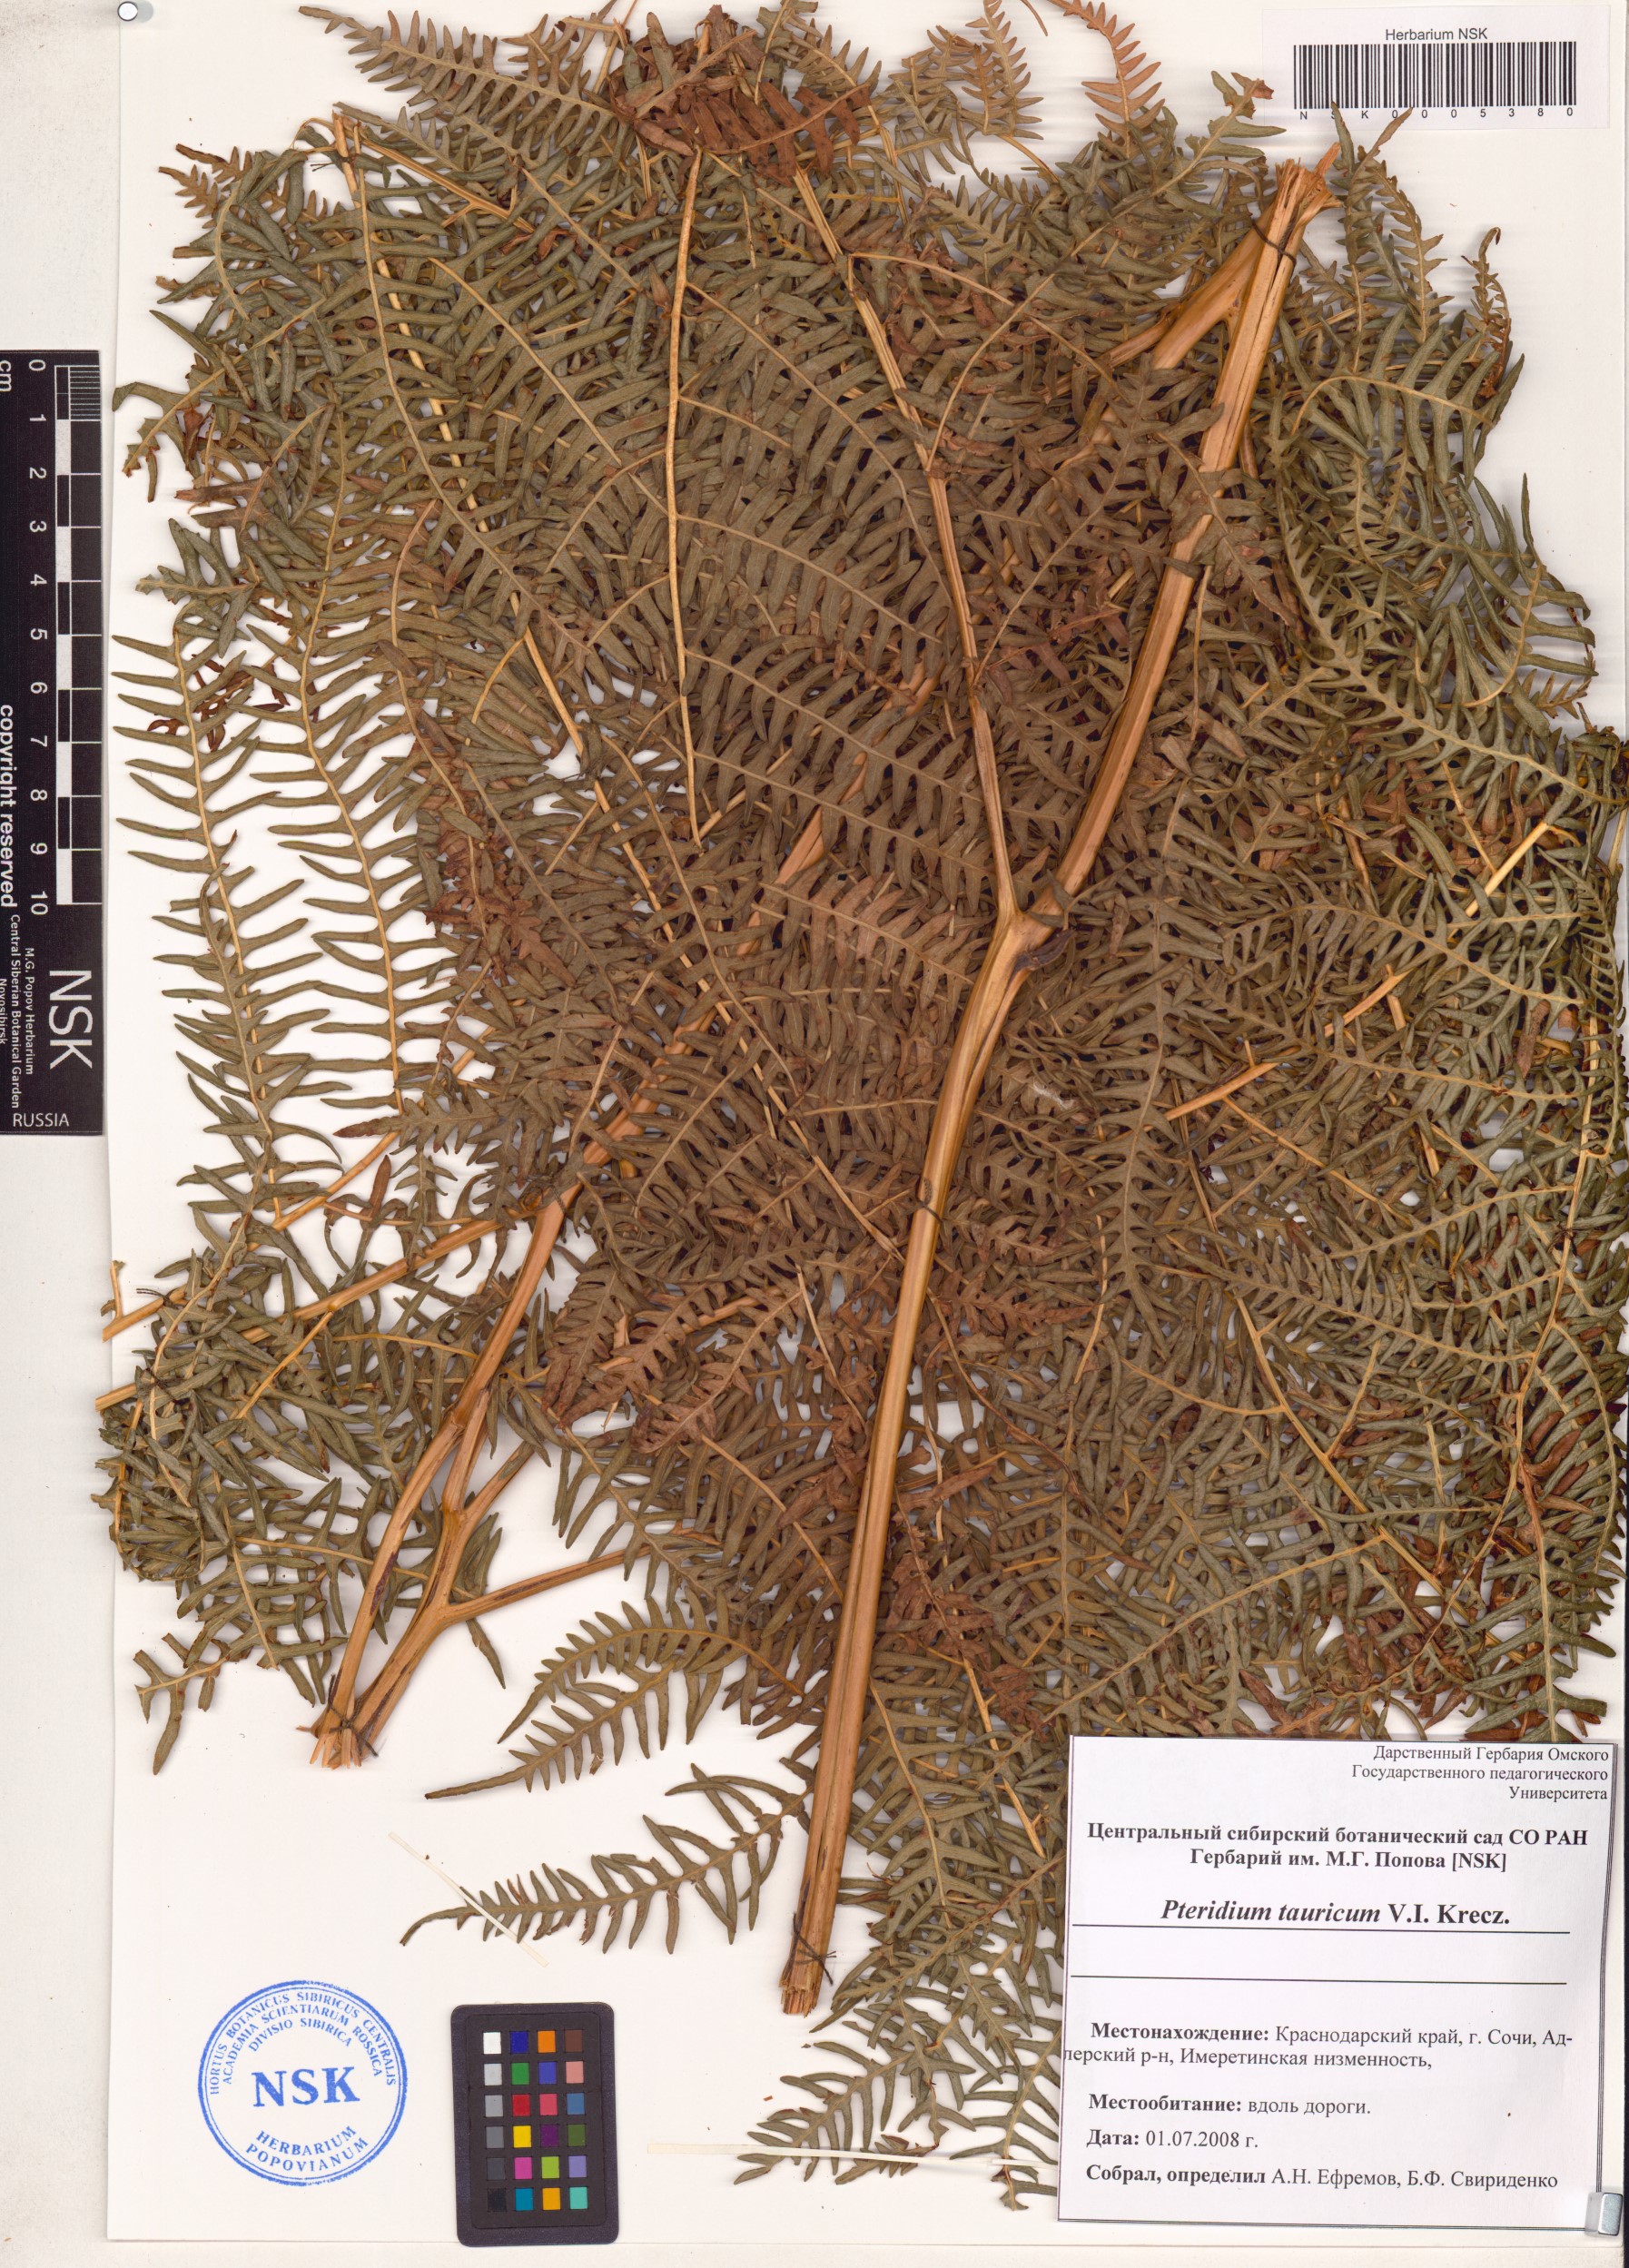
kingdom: Plantae
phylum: Tracheophyta
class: Polypodiopsida
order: Polypodiales
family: Dennstaedtiaceae
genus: Pteridium
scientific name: Pteridium aquilinum
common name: Bracken
